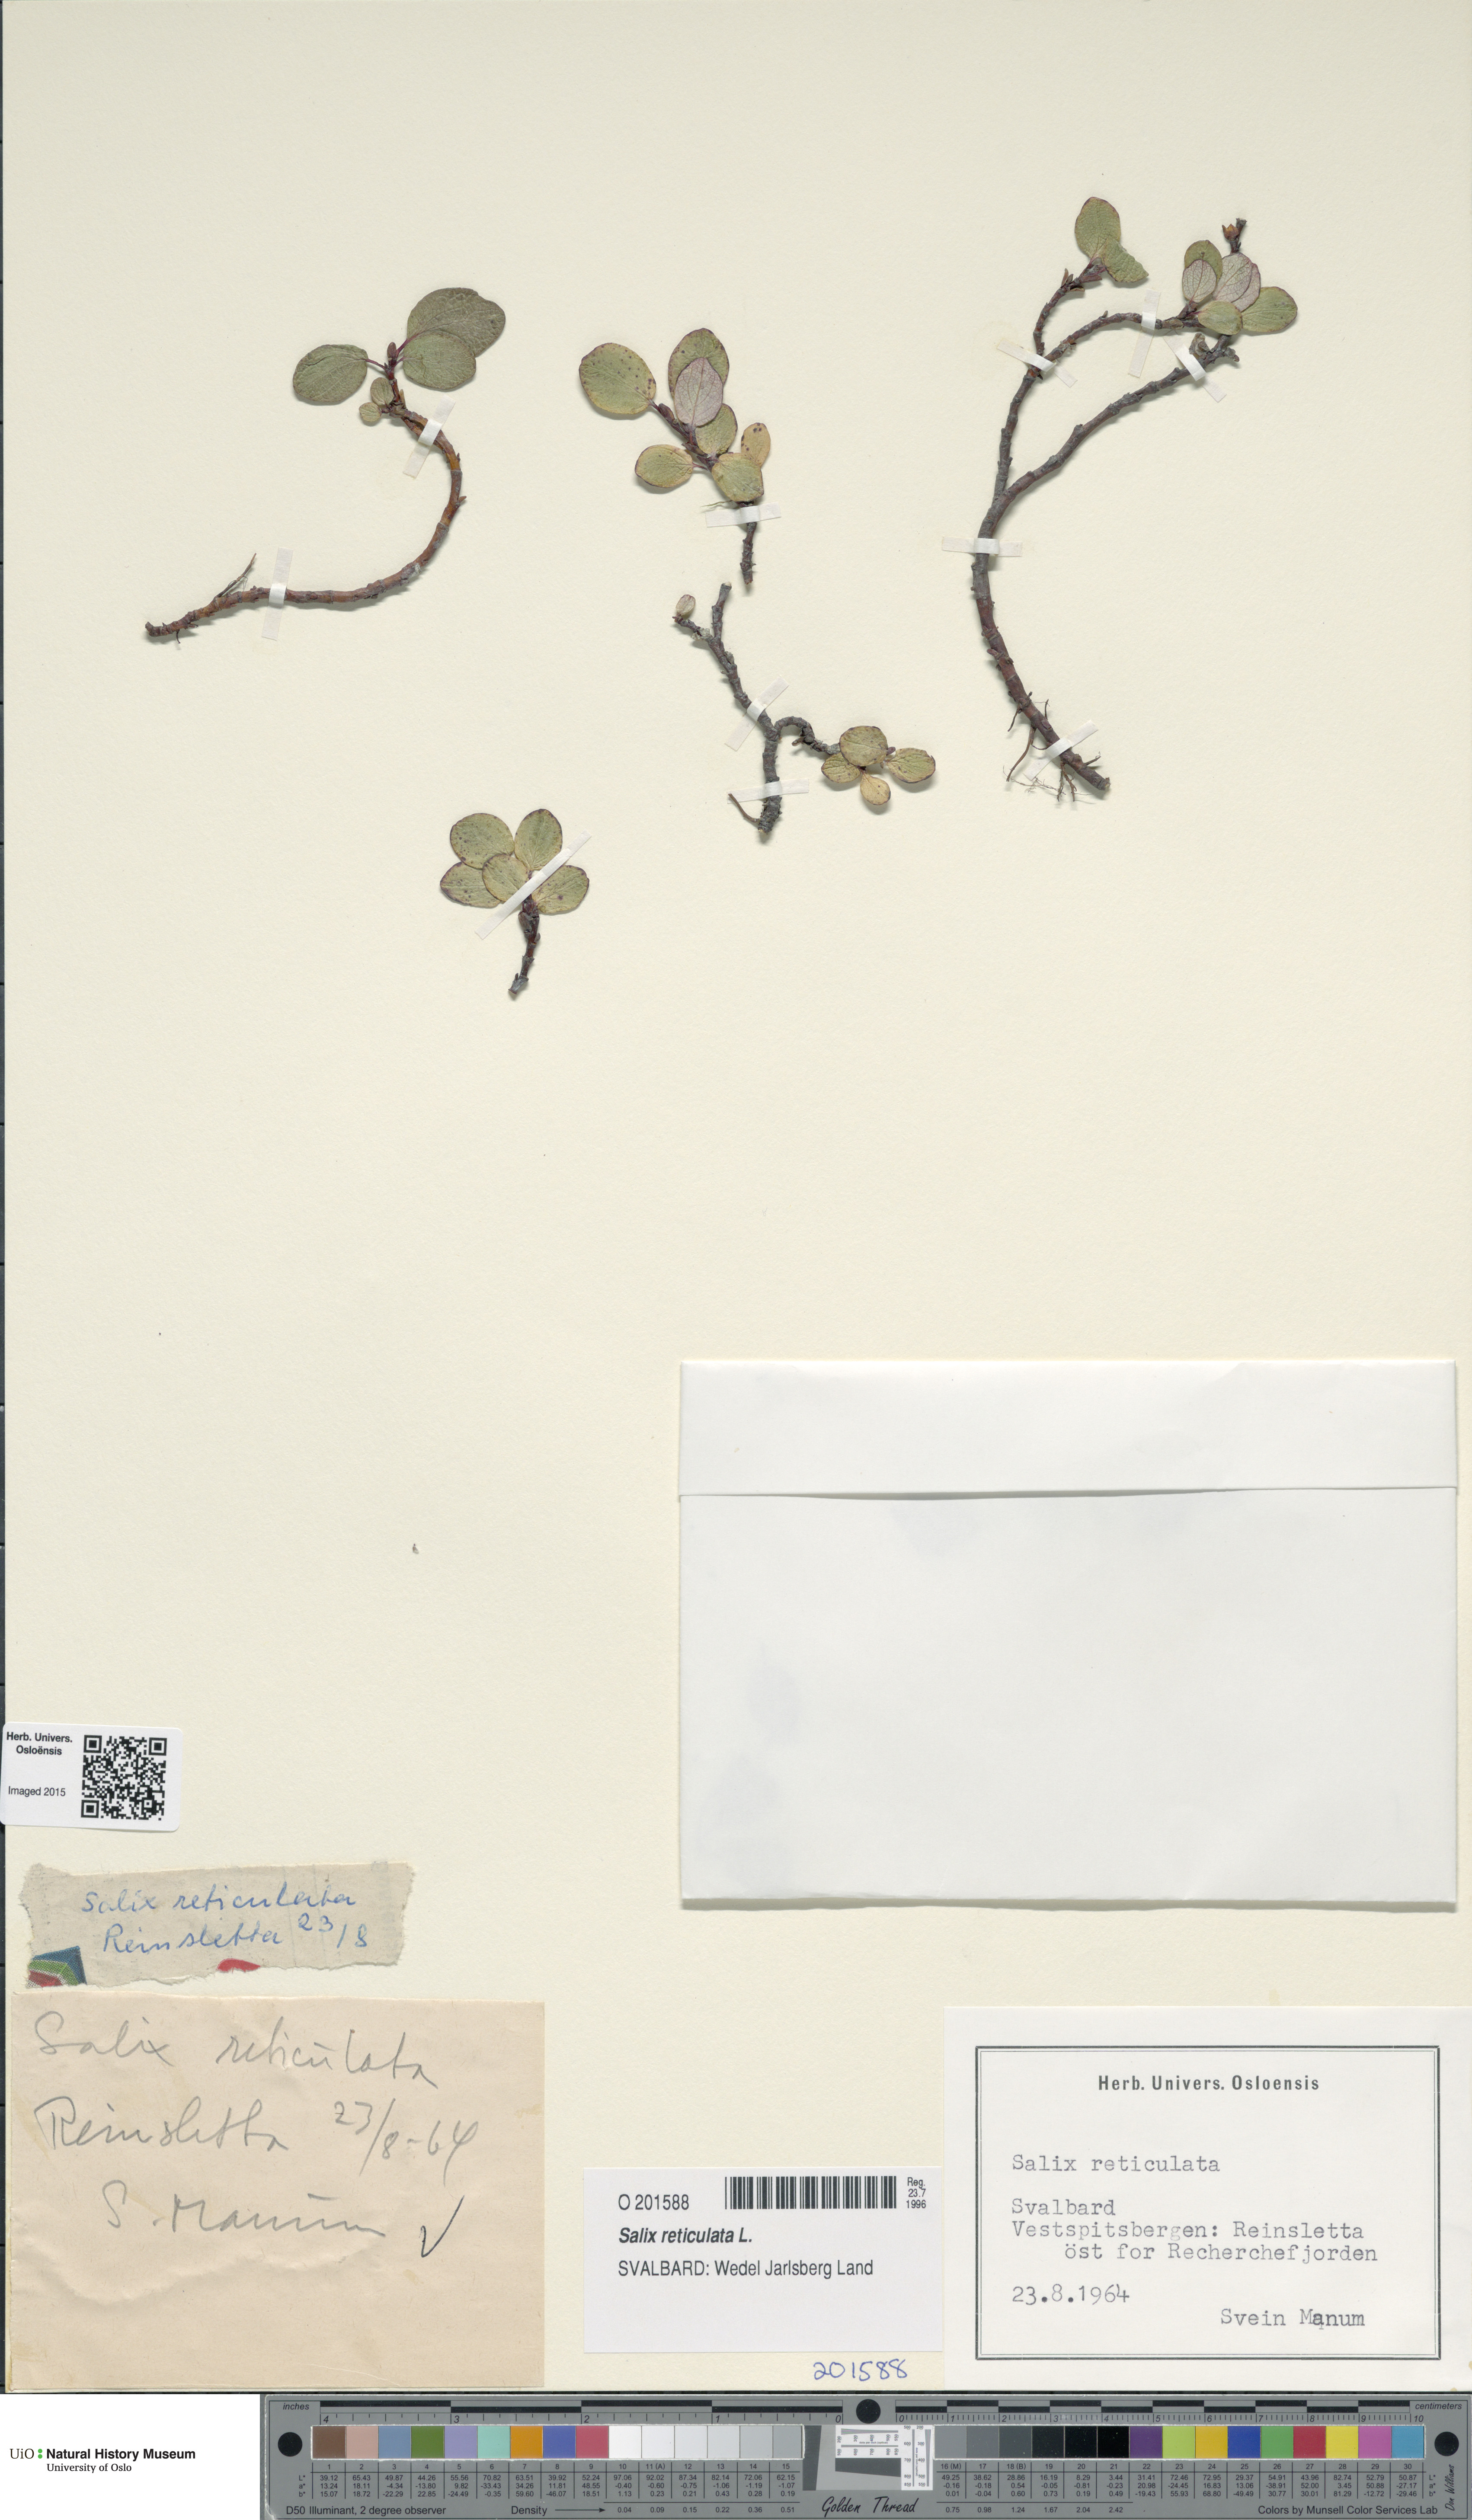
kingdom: Plantae
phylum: Tracheophyta
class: Magnoliopsida
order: Malpighiales
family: Salicaceae
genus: Salix
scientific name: Salix reticulata
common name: Net-leaved willow
